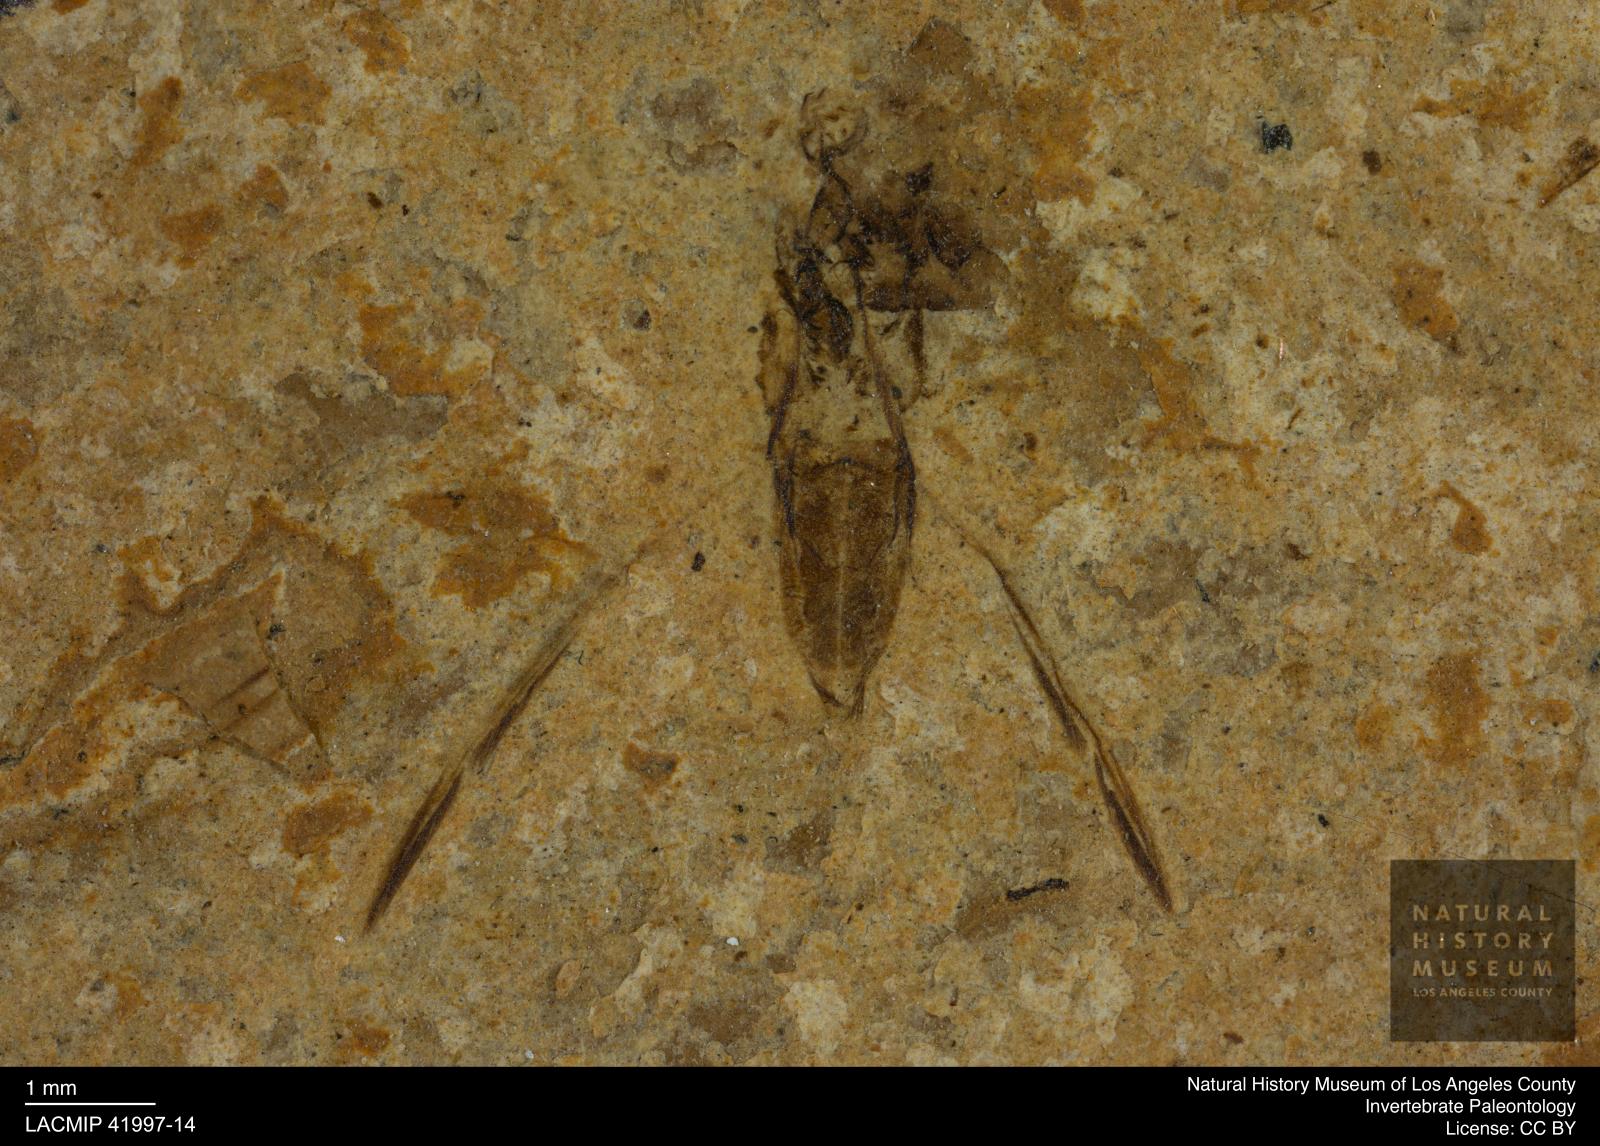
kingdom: Animalia
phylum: Arthropoda
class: Insecta
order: Hemiptera
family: Notonectidae
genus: Anisops
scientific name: Anisops Notonecta deichmuelleri
